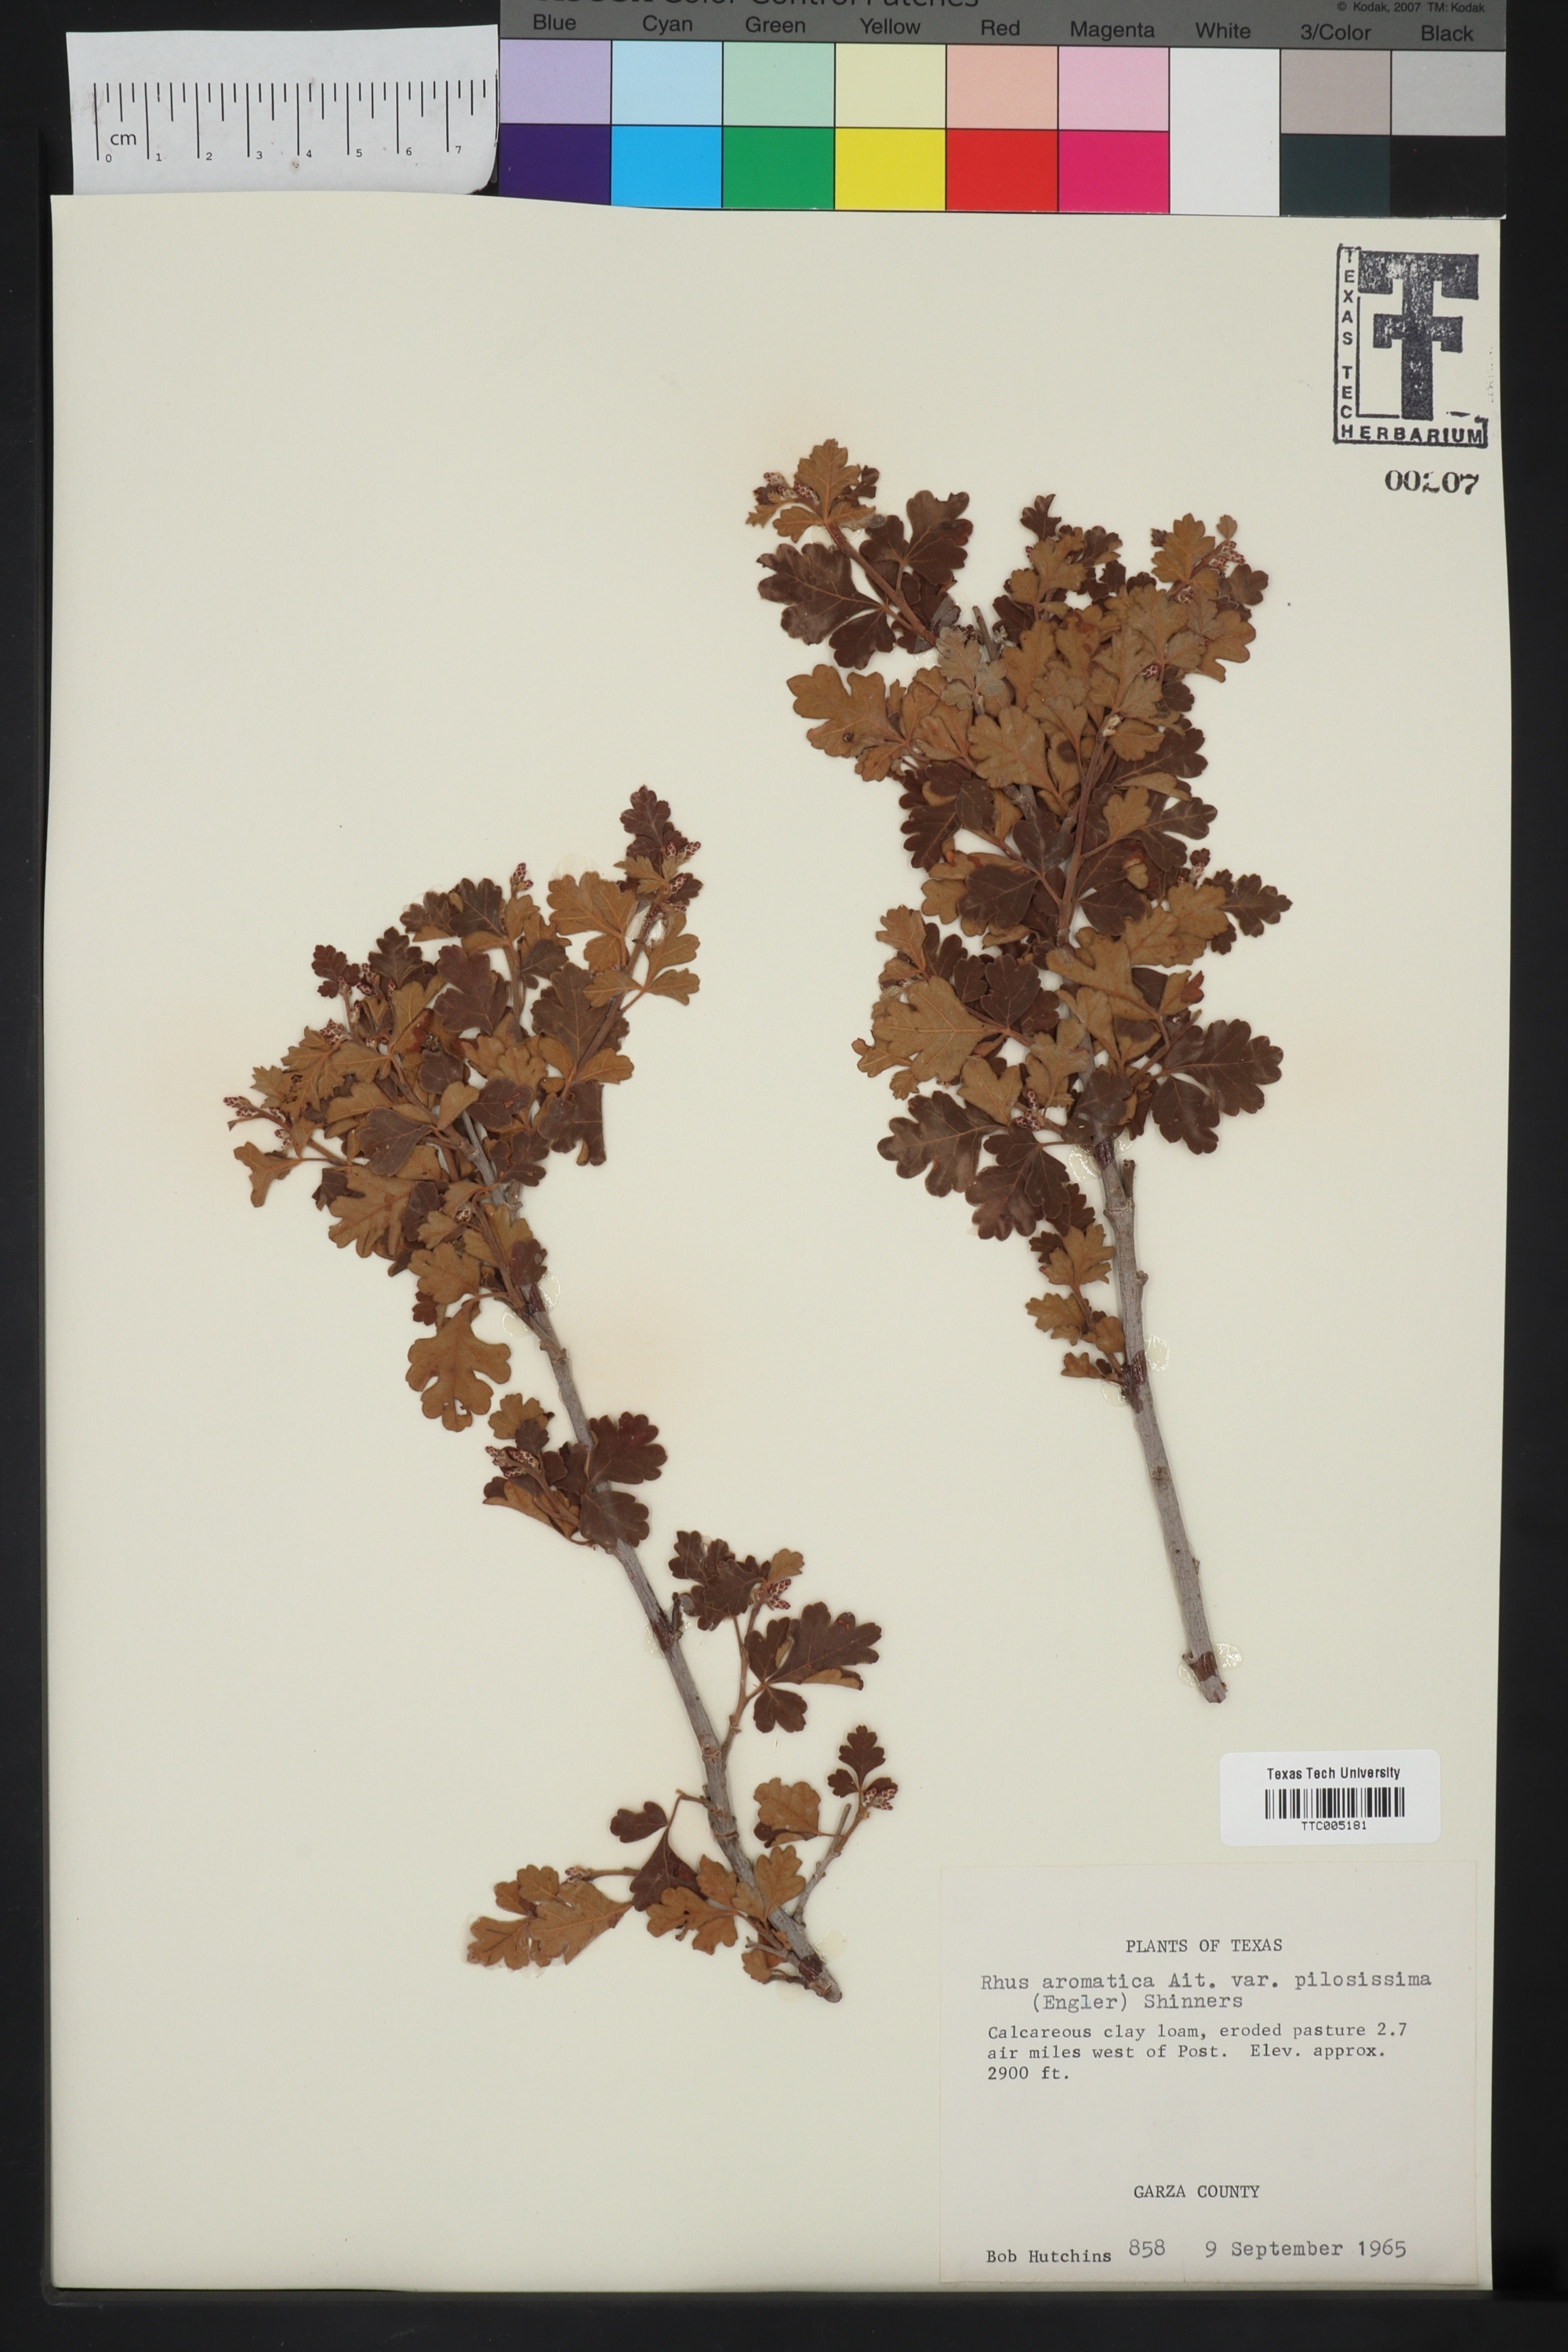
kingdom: Plantae
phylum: Tracheophyta
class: Magnoliopsida
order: Sapindales
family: Anacardiaceae
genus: Rhus
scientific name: Rhus trilobata
